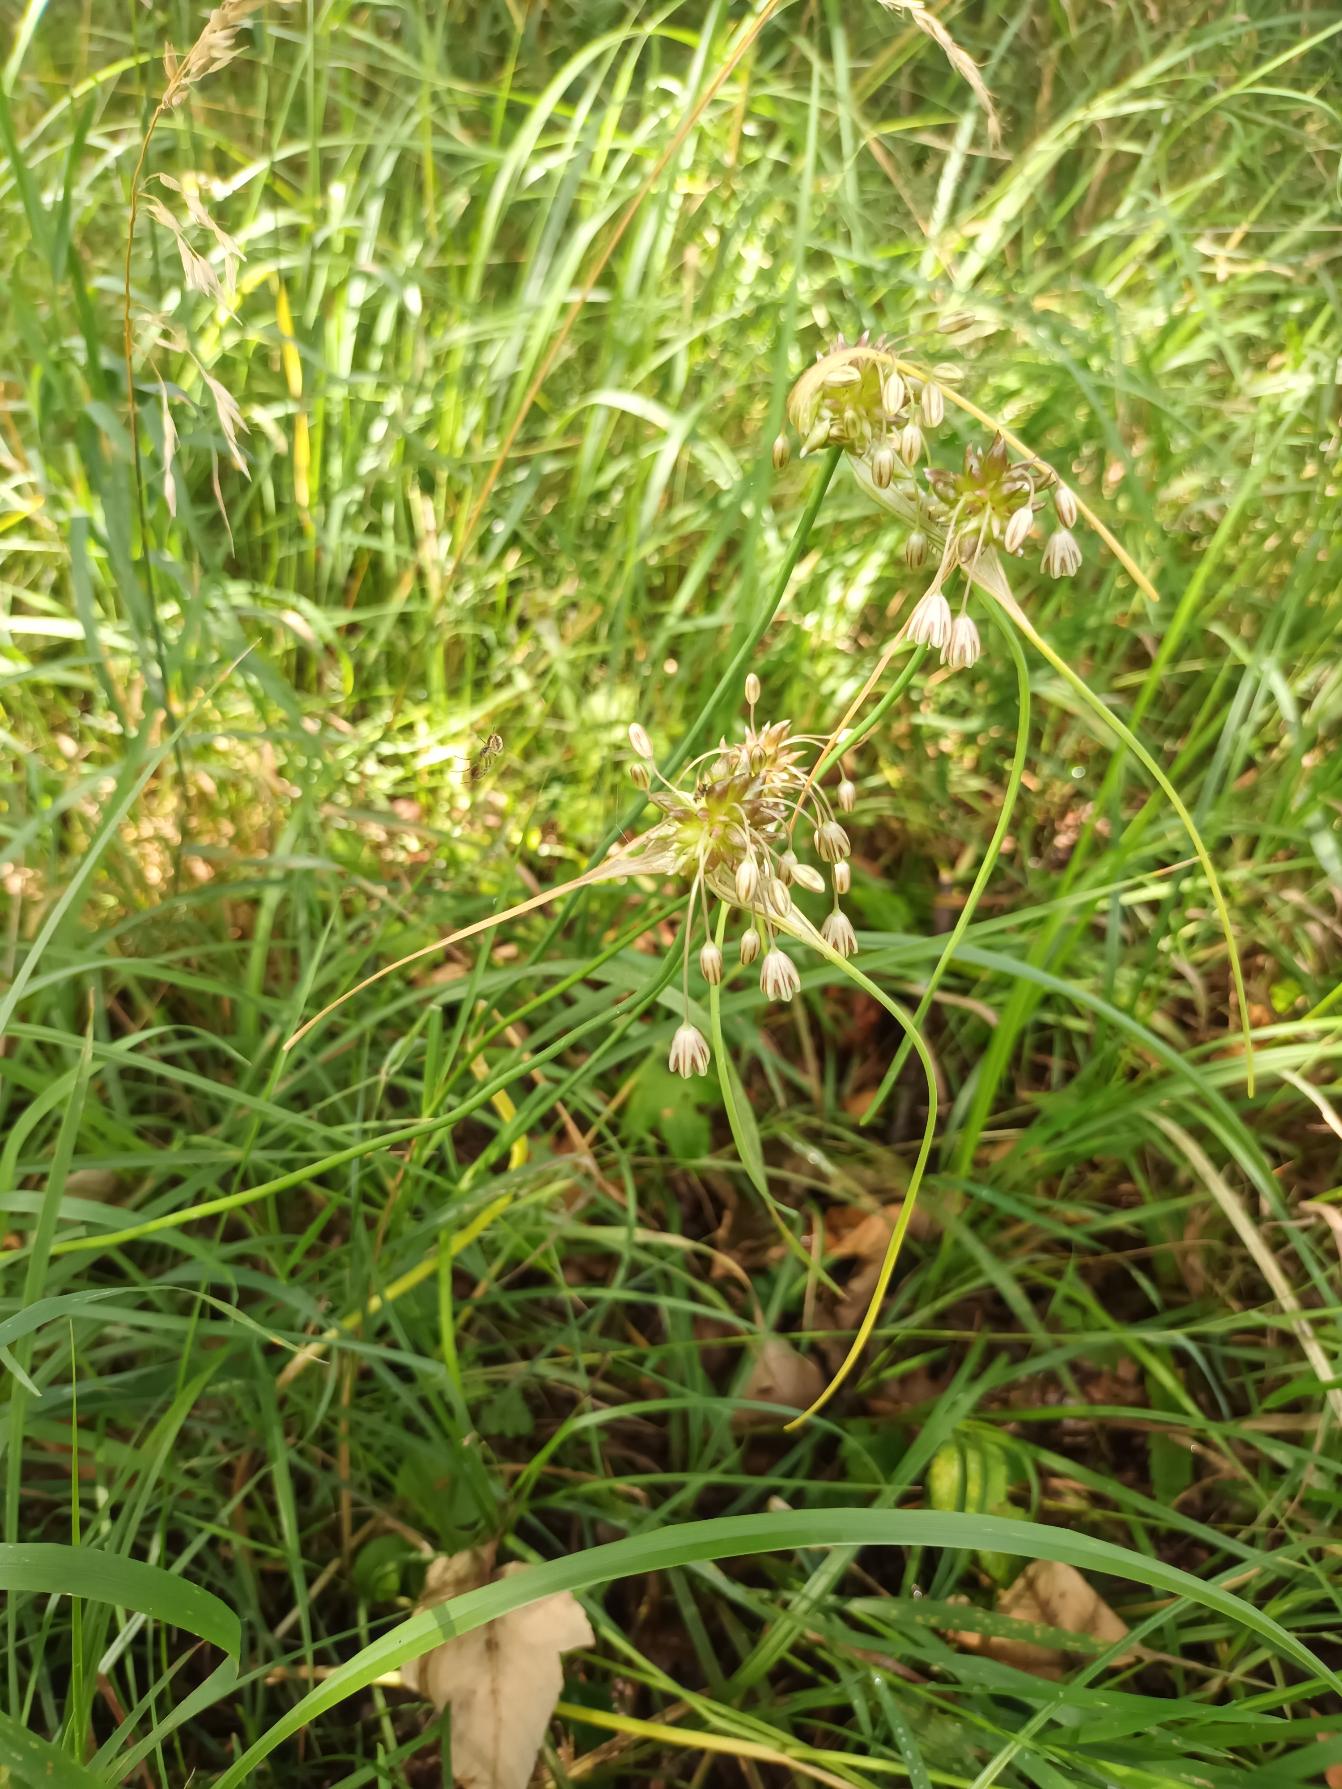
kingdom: Plantae
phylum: Tracheophyta
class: Liliopsida
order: Asparagales
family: Amaryllidaceae
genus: Allium
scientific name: Allium oleraceum
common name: Vild løg
